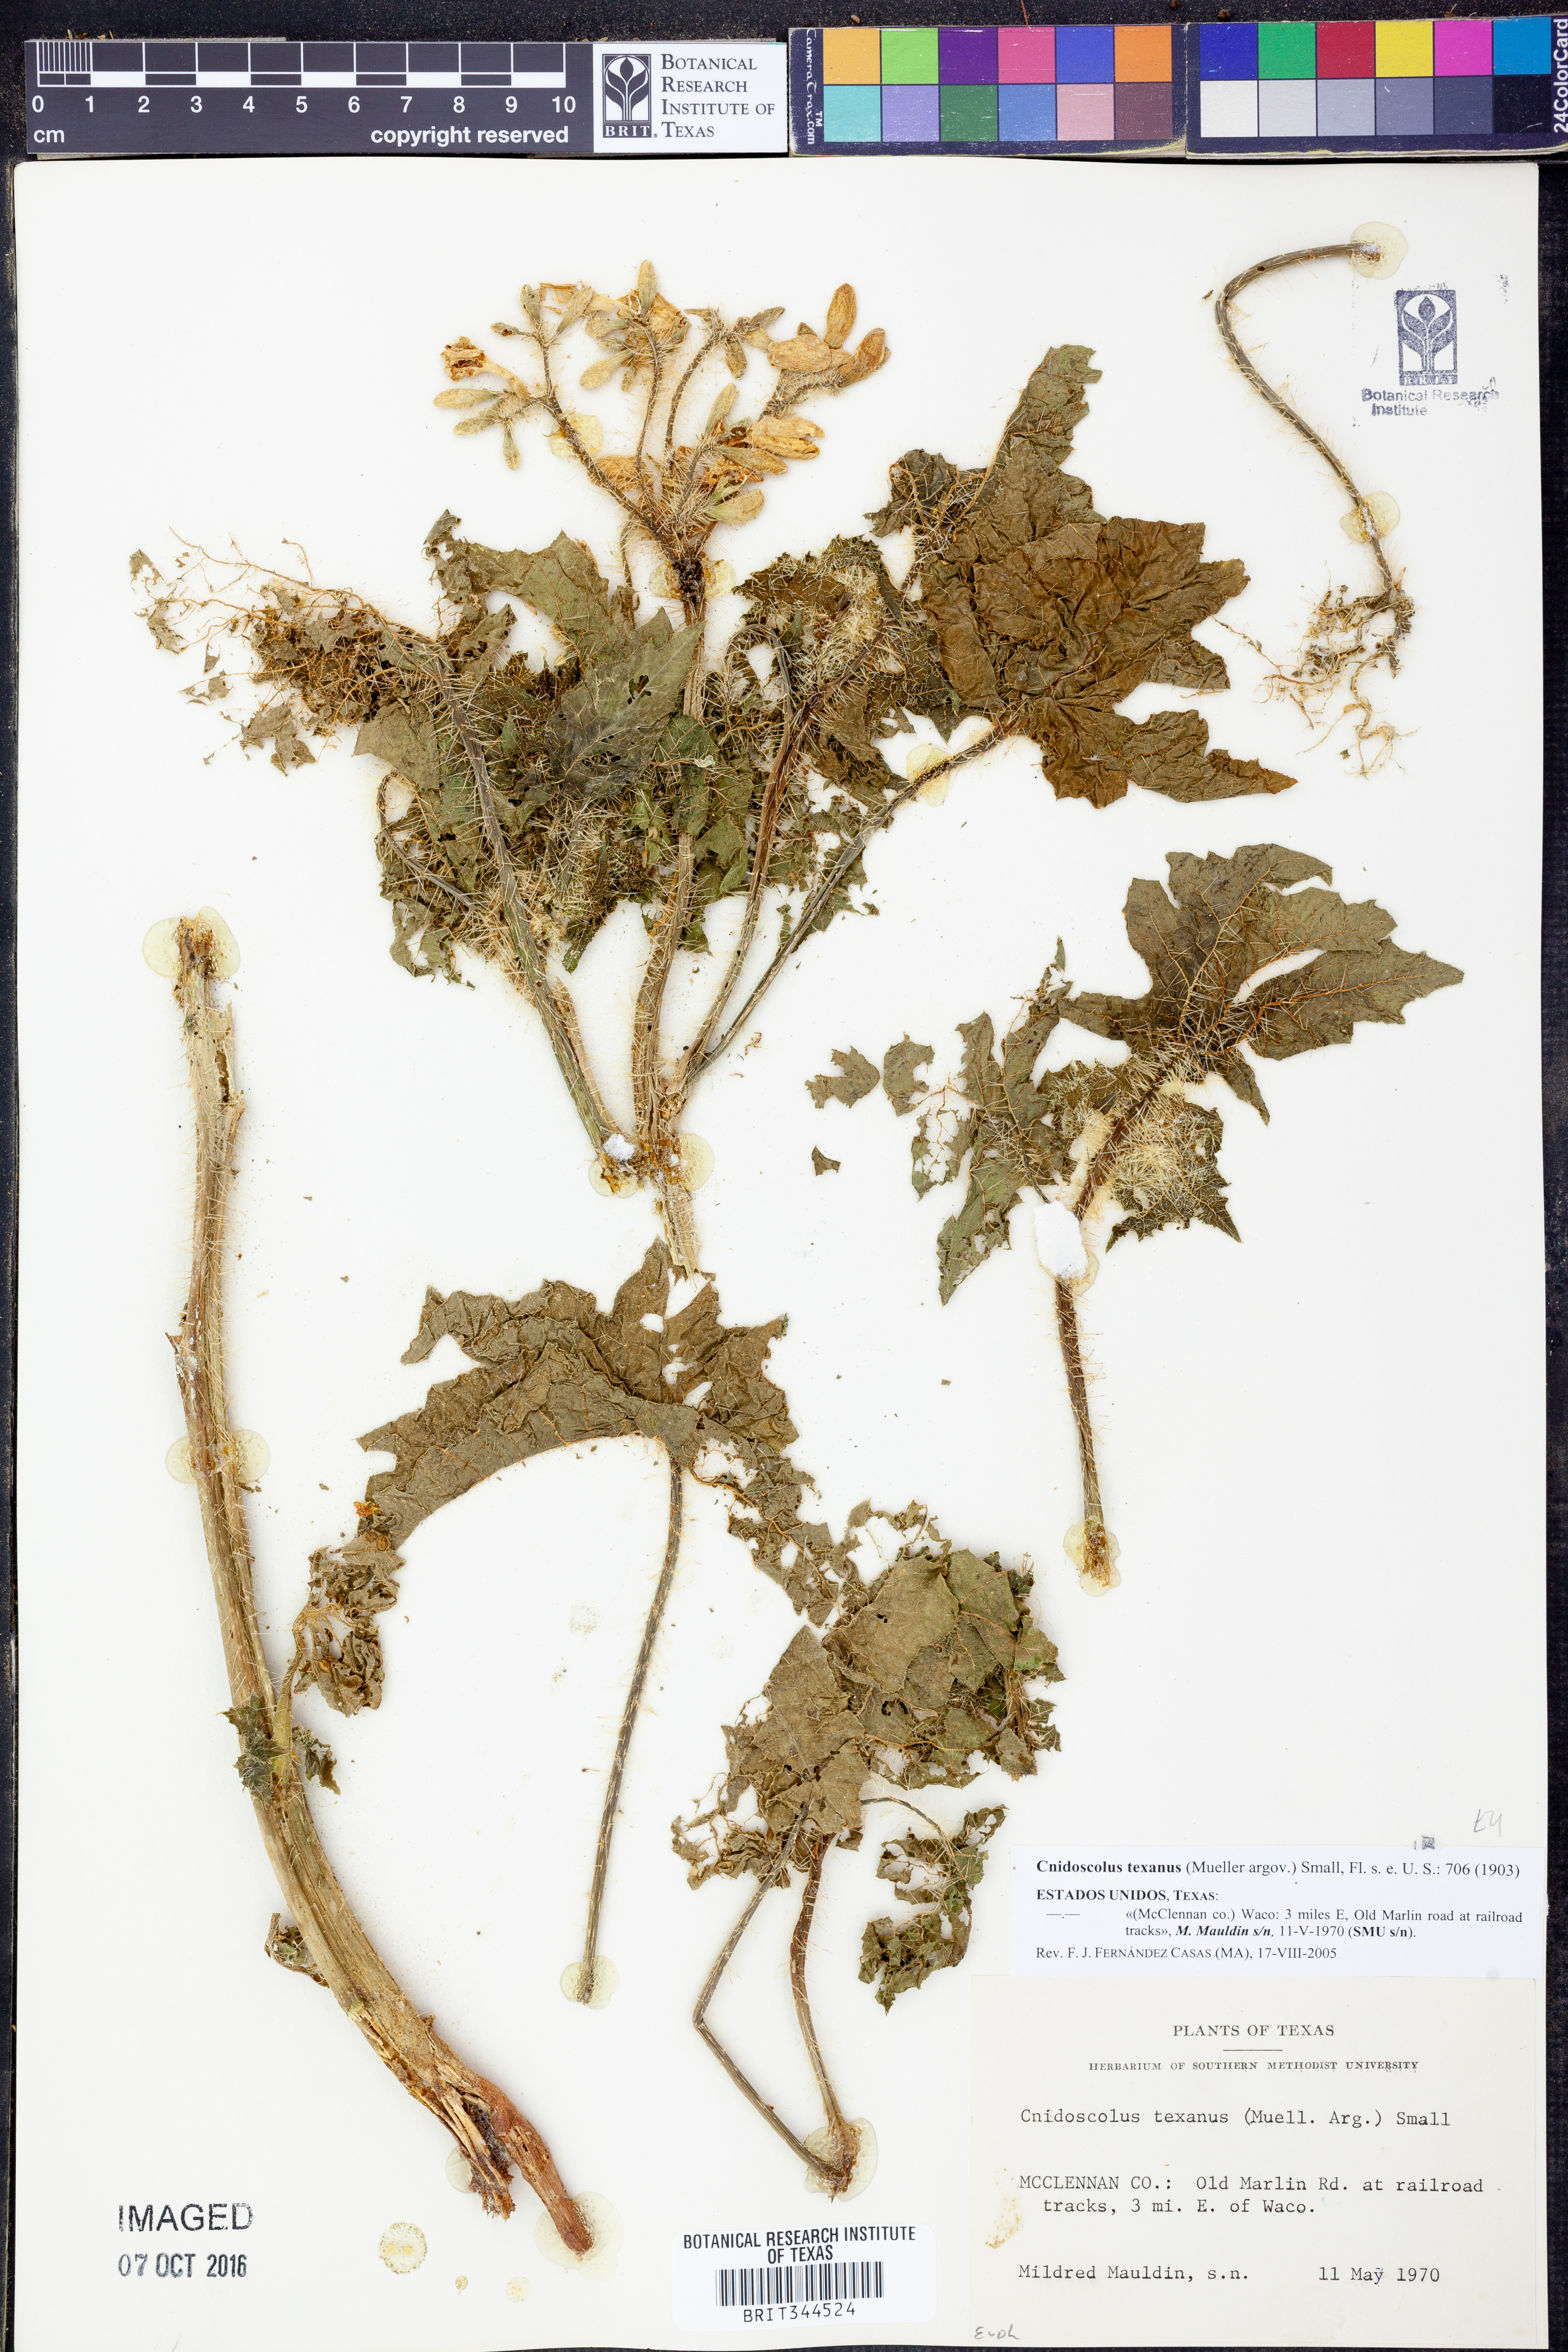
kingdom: Plantae
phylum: Tracheophyta
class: Magnoliopsida
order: Malpighiales
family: Euphorbiaceae
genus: Cnidoscolus
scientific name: Cnidoscolus texanus
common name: Texas bull-nettle
